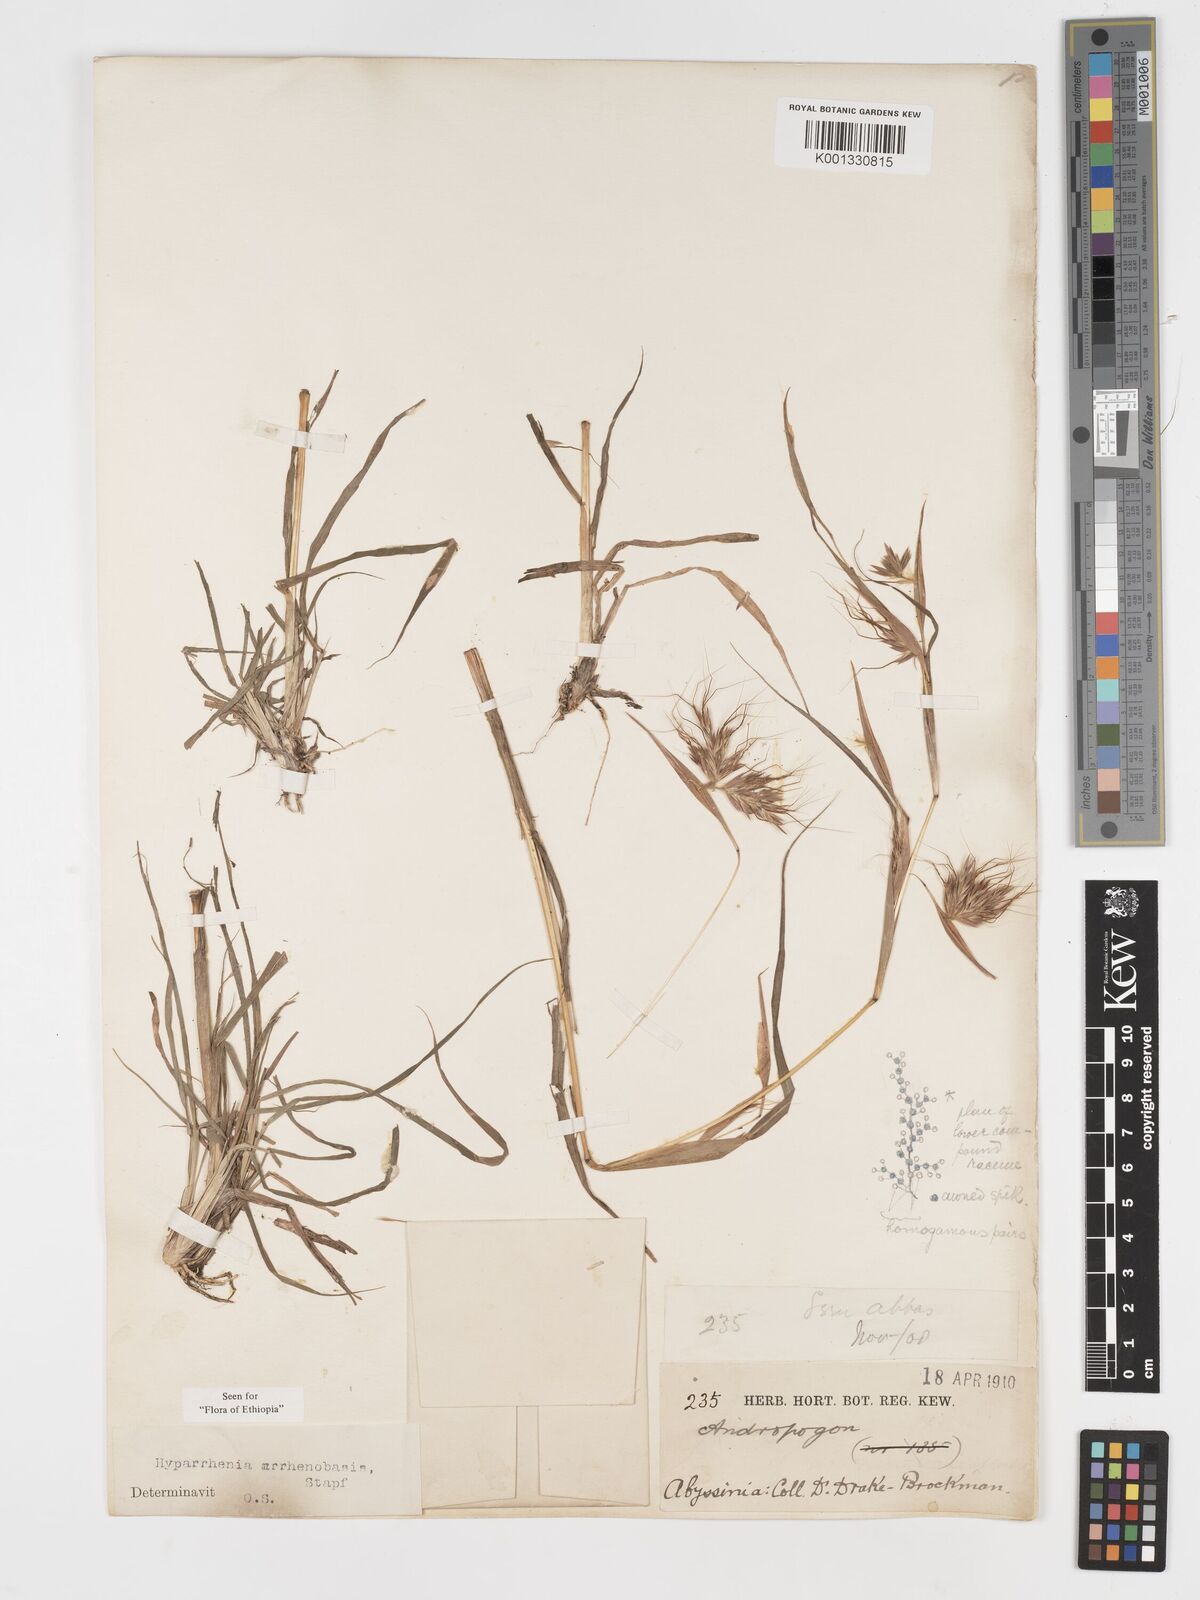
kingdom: Plantae
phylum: Tracheophyta
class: Liliopsida
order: Poales
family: Poaceae
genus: Hyparrhenia
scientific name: Hyparrhenia arrhenobasis
